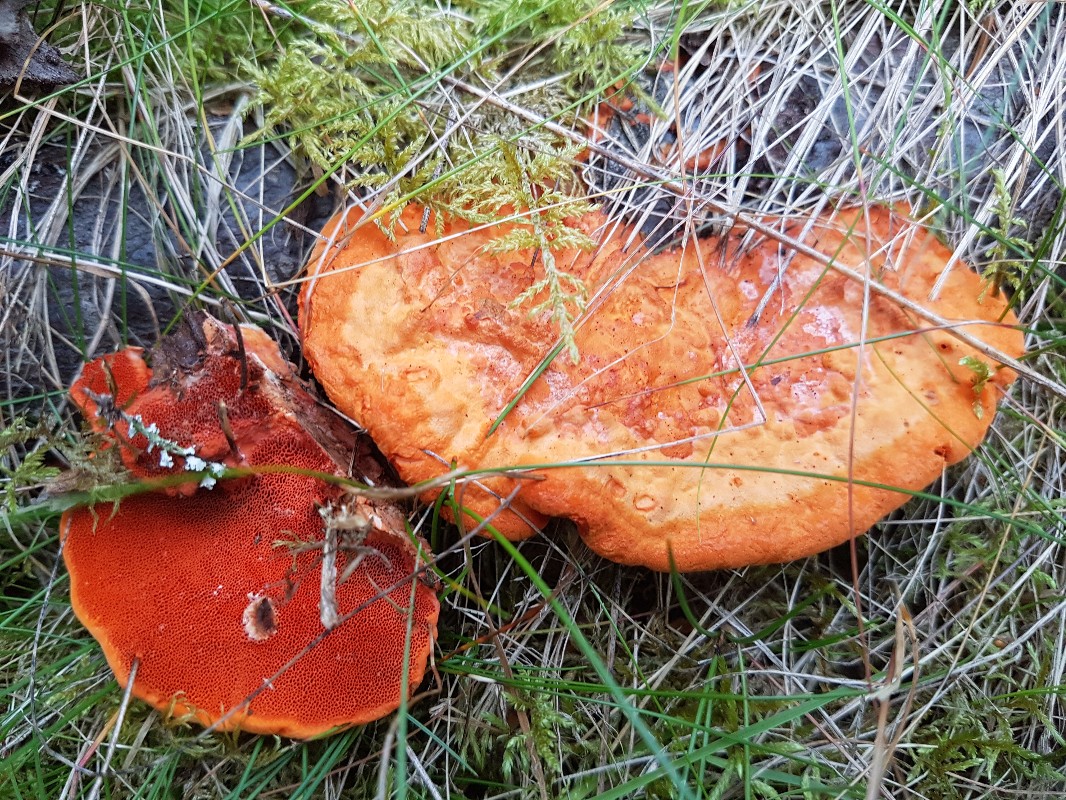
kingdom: Fungi
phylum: Basidiomycota
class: Agaricomycetes
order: Polyporales
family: Polyporaceae
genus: Trametes
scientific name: Trametes cinnabarina
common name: cinnoberporesvamp
